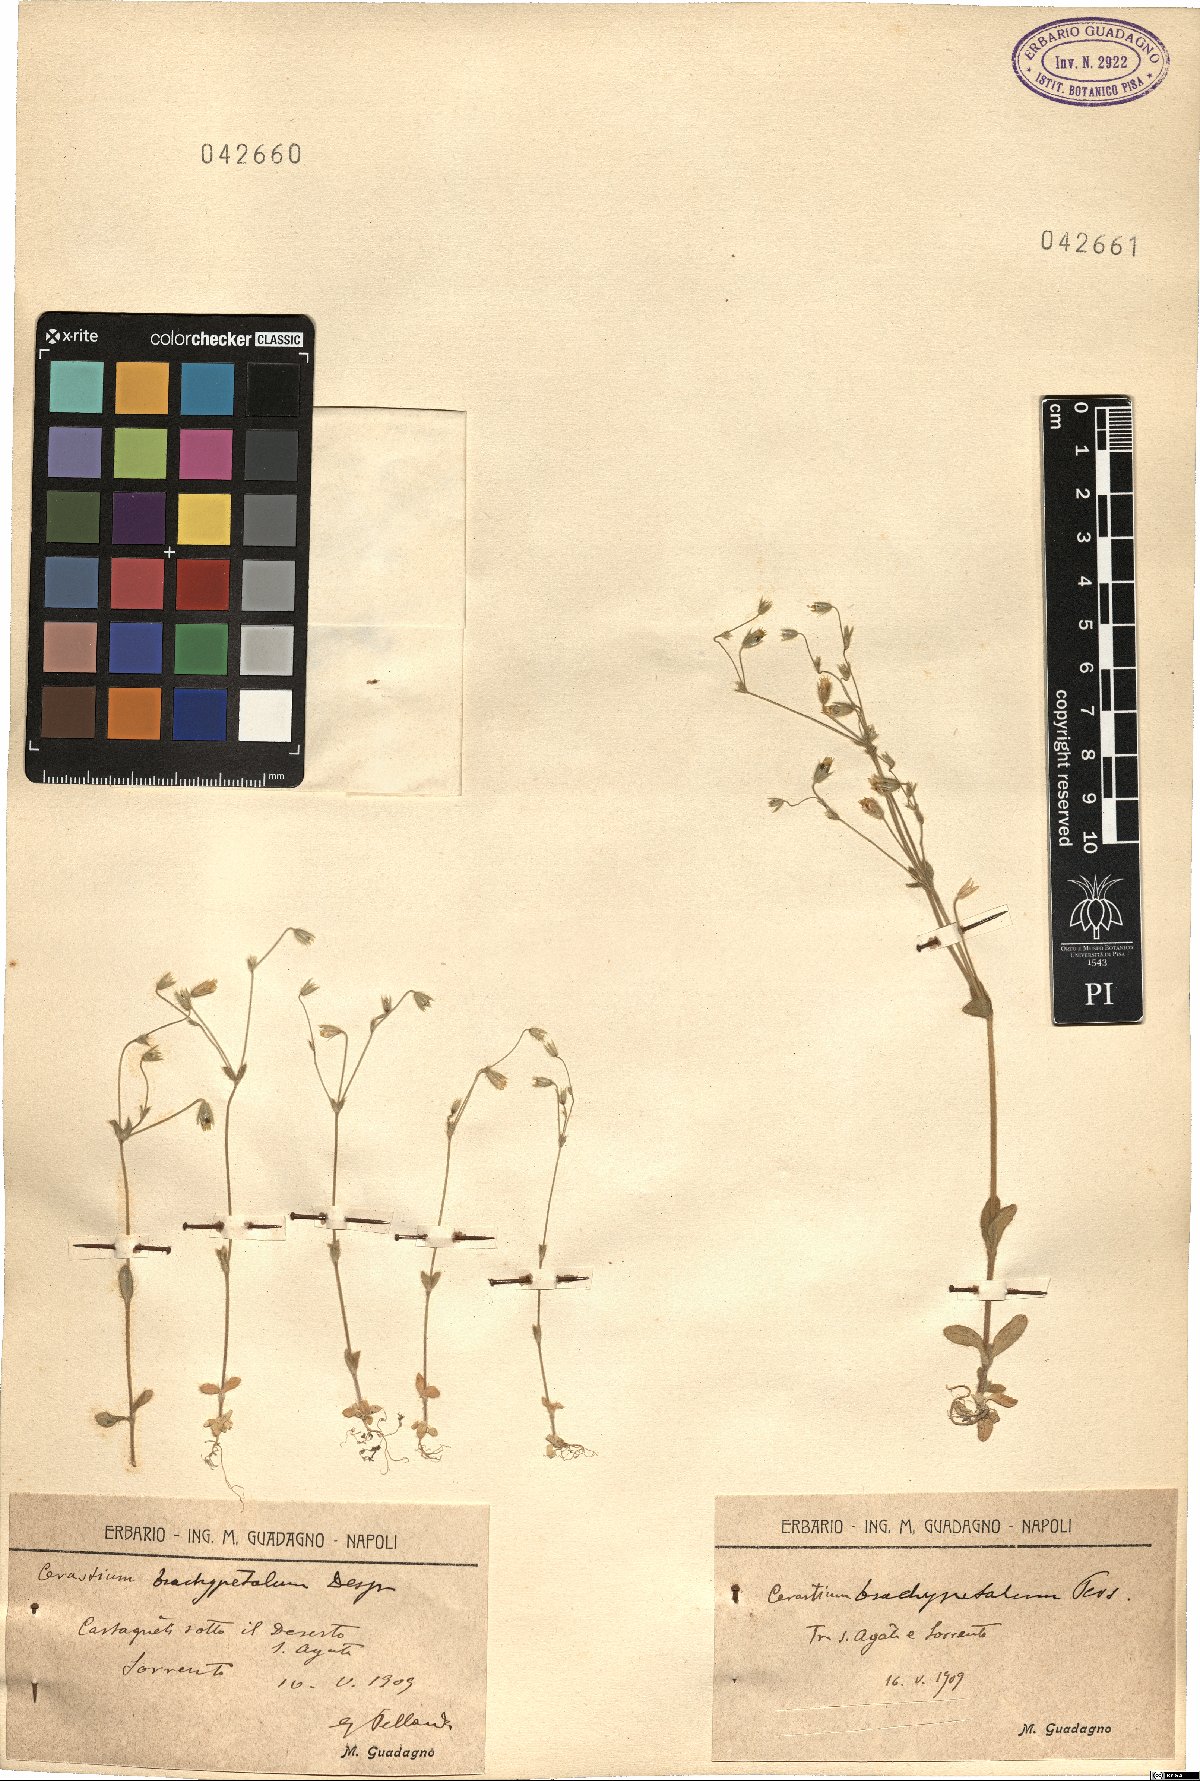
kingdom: Plantae
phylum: Tracheophyta
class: Magnoliopsida
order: Caryophyllales
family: Caryophyllaceae
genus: Cerastium
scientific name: Cerastium brachypetalum
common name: Grey mouse-ear
